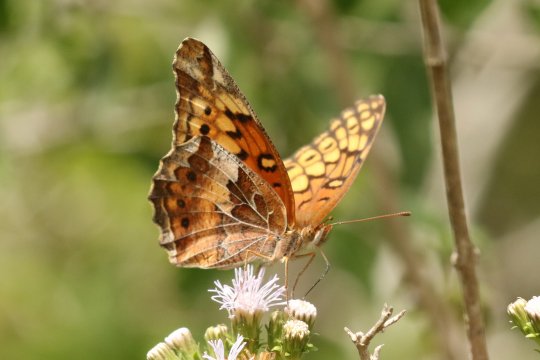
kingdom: Animalia
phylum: Arthropoda
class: Insecta
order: Lepidoptera
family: Nymphalidae
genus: Euptoieta
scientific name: Euptoieta claudia
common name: Variegated Fritillary
